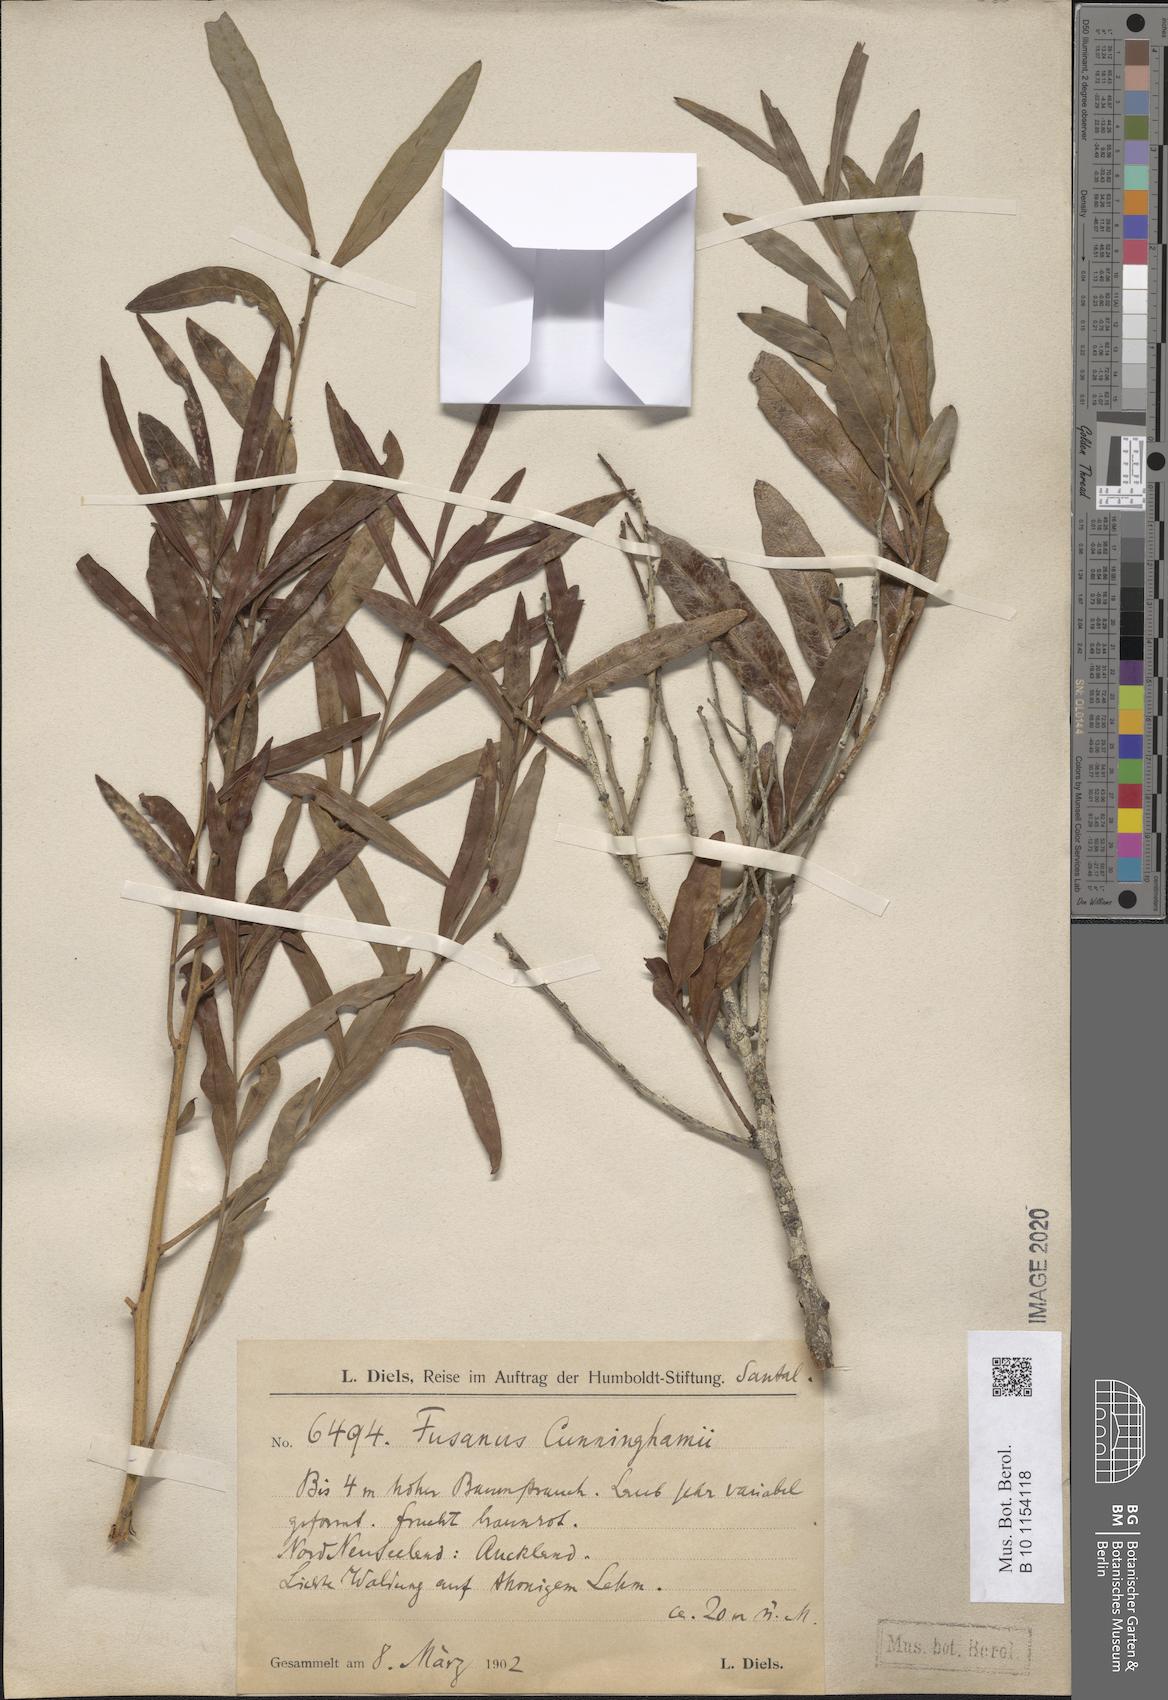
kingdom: Plantae
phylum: Tracheophyta
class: Magnoliopsida
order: Santalales
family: Nanodeaceae
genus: Mida
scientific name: Mida salicifolia
